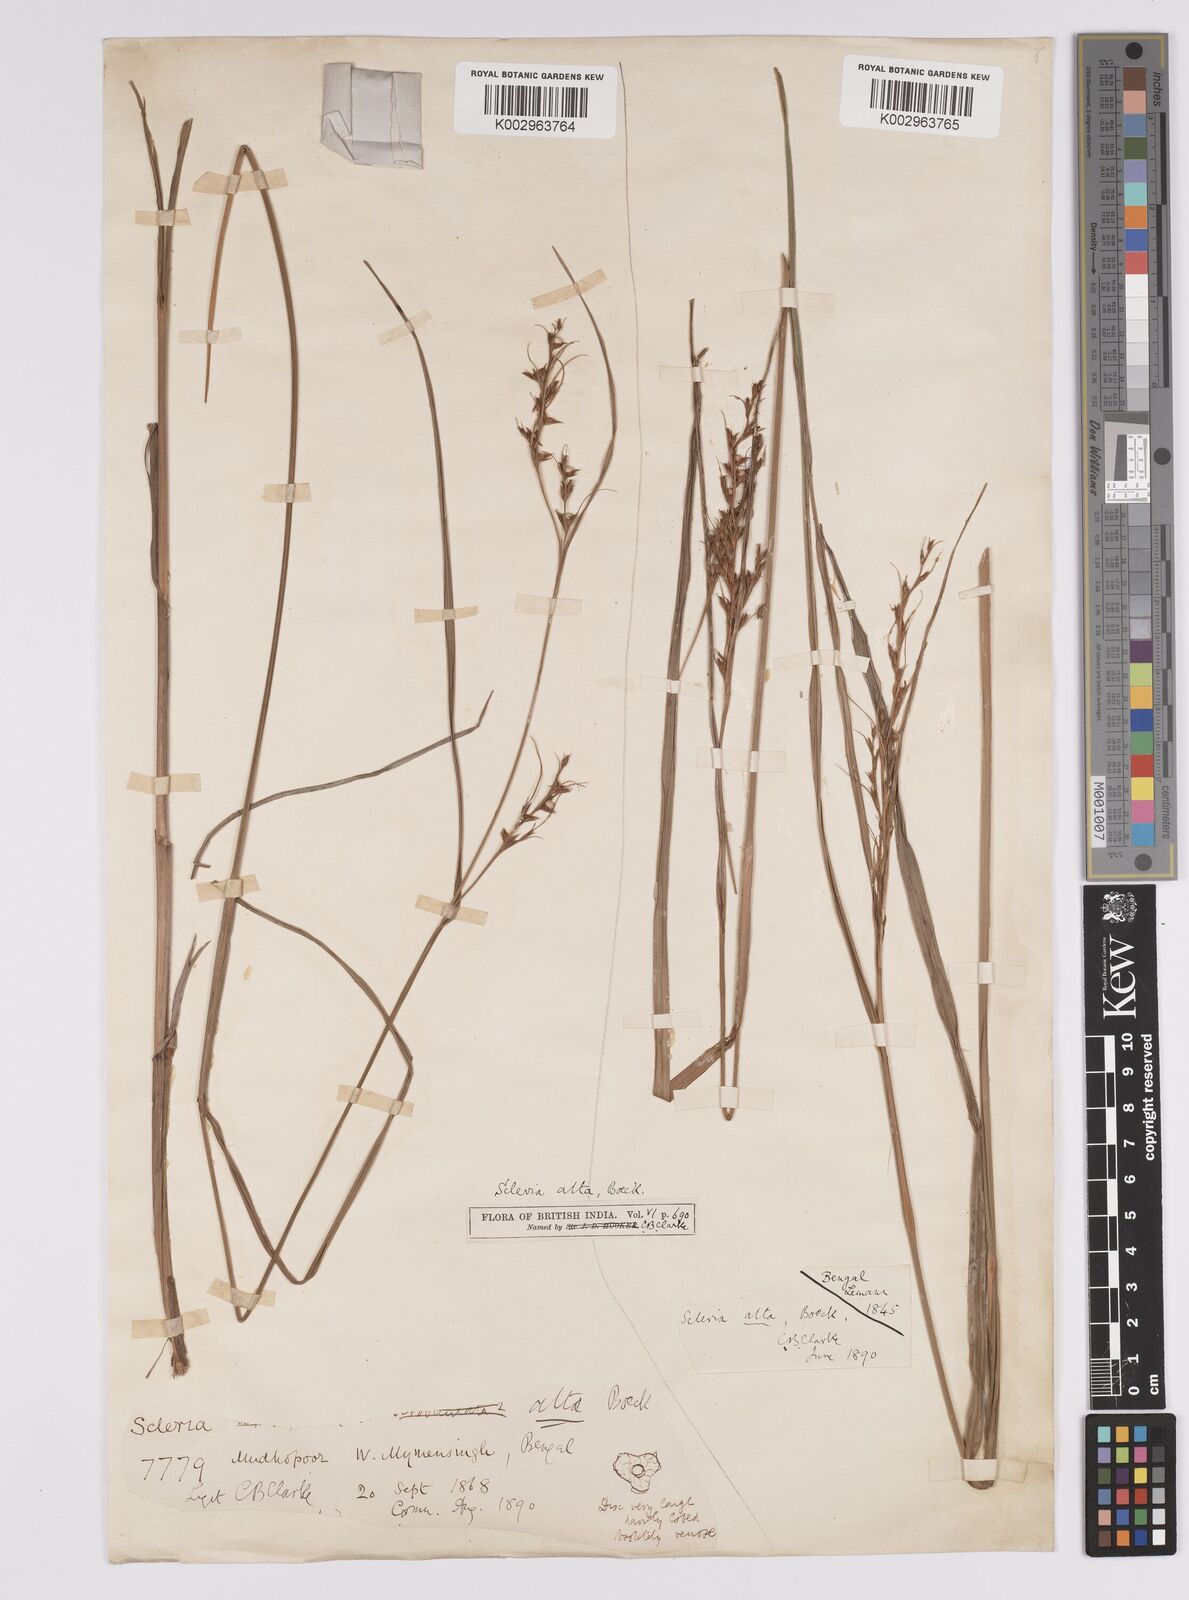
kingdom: Plantae
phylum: Tracheophyta
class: Liliopsida
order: Poales
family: Cyperaceae
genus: Scleria
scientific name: Scleria levis
